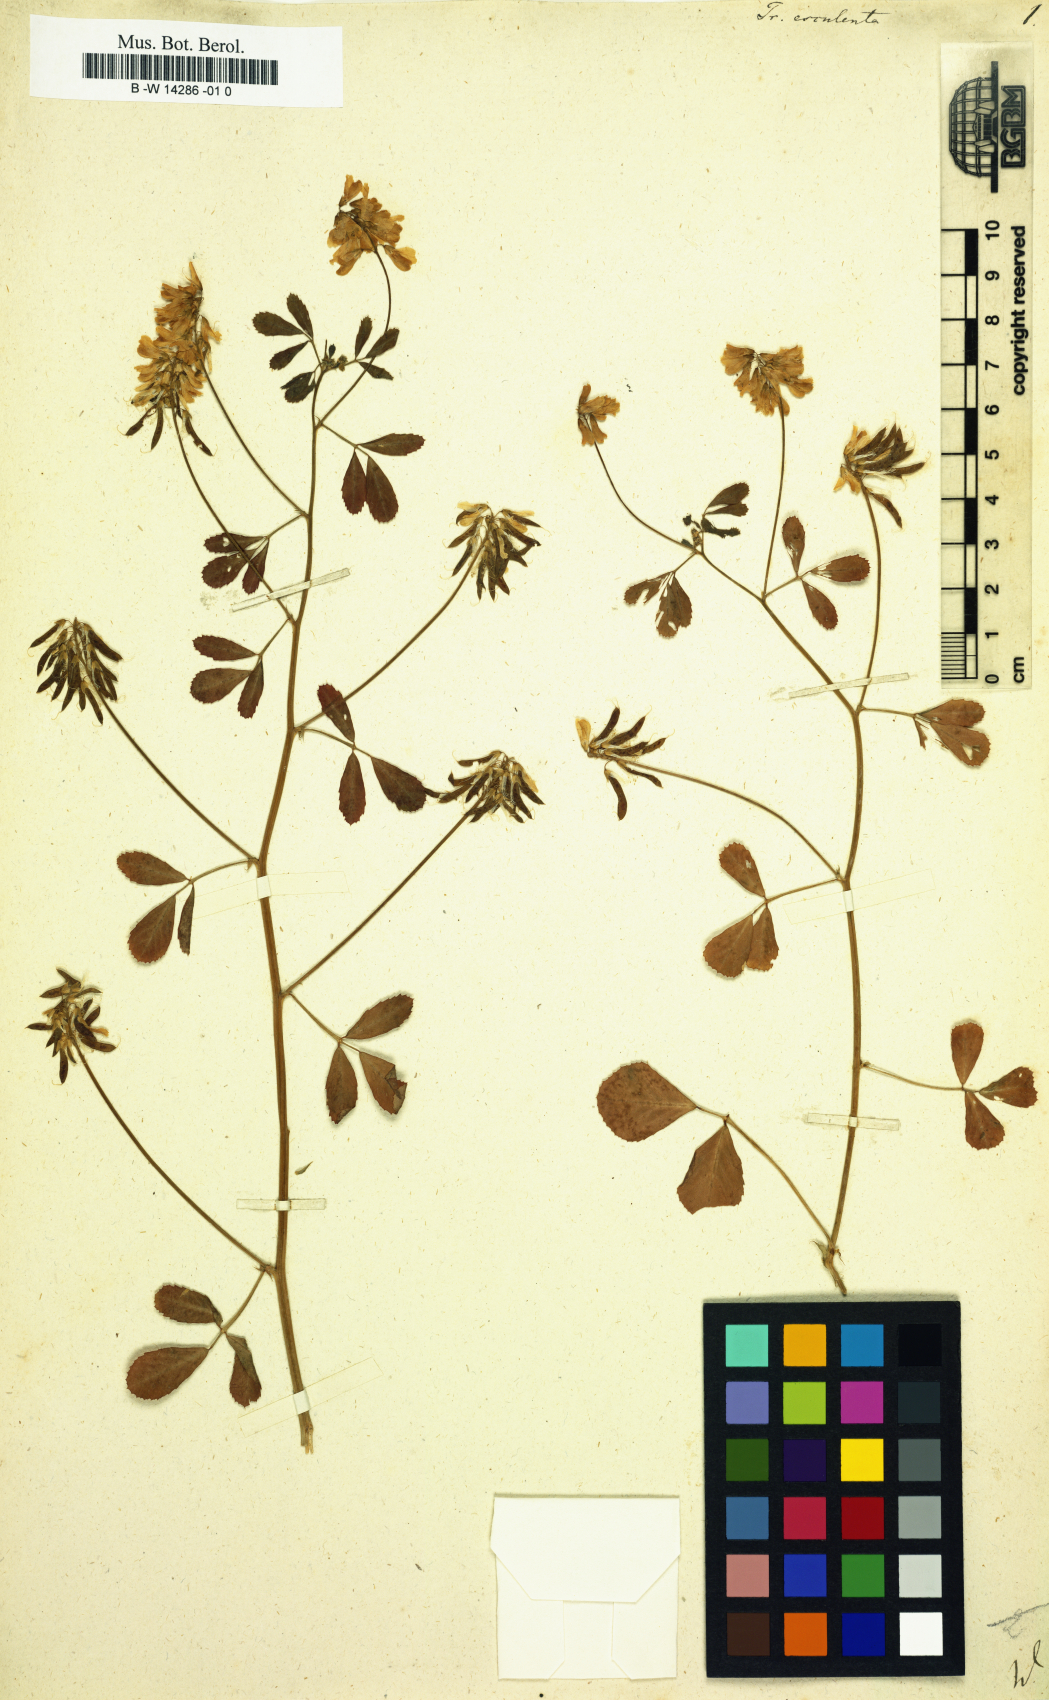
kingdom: Plantae
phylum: Tracheophyta
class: Magnoliopsida
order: Fabales
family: Fabaceae
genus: Trigonella
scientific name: Trigonella esculenta
